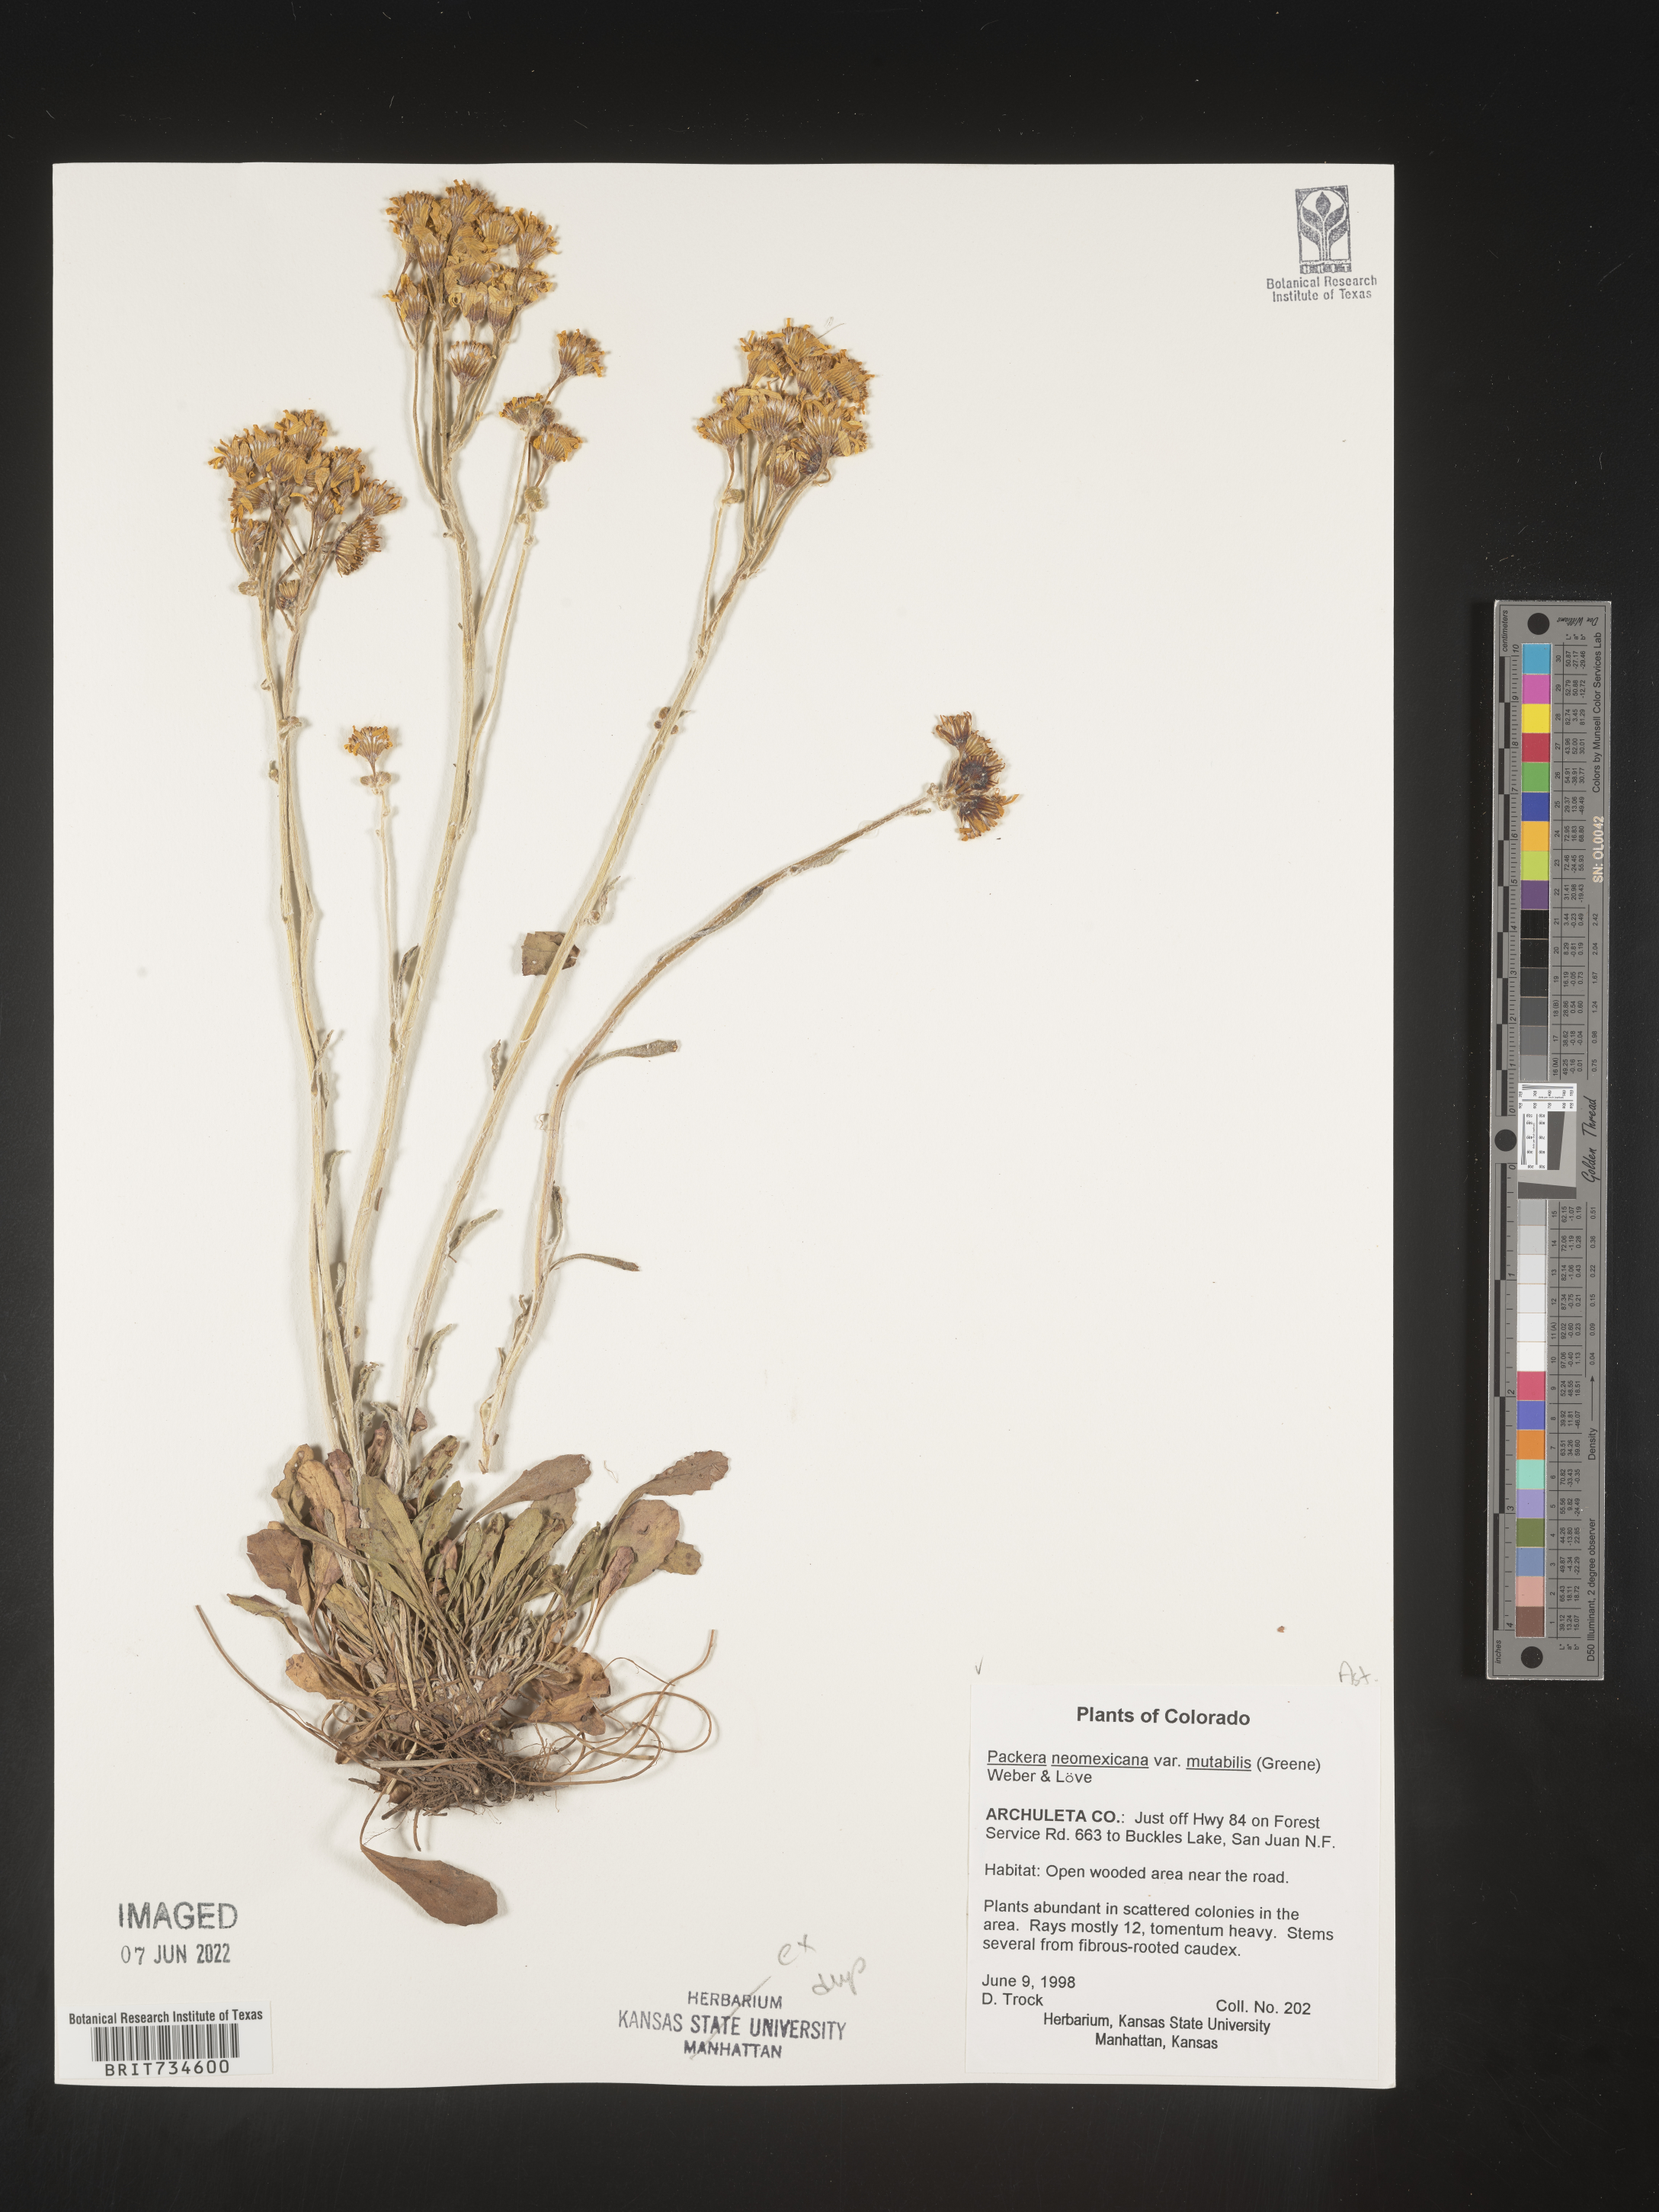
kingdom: Plantae
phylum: Tracheophyta
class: Magnoliopsida
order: Asterales
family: Asteraceae
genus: Packera
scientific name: Packera neomexicana
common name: New mexico butterweed
